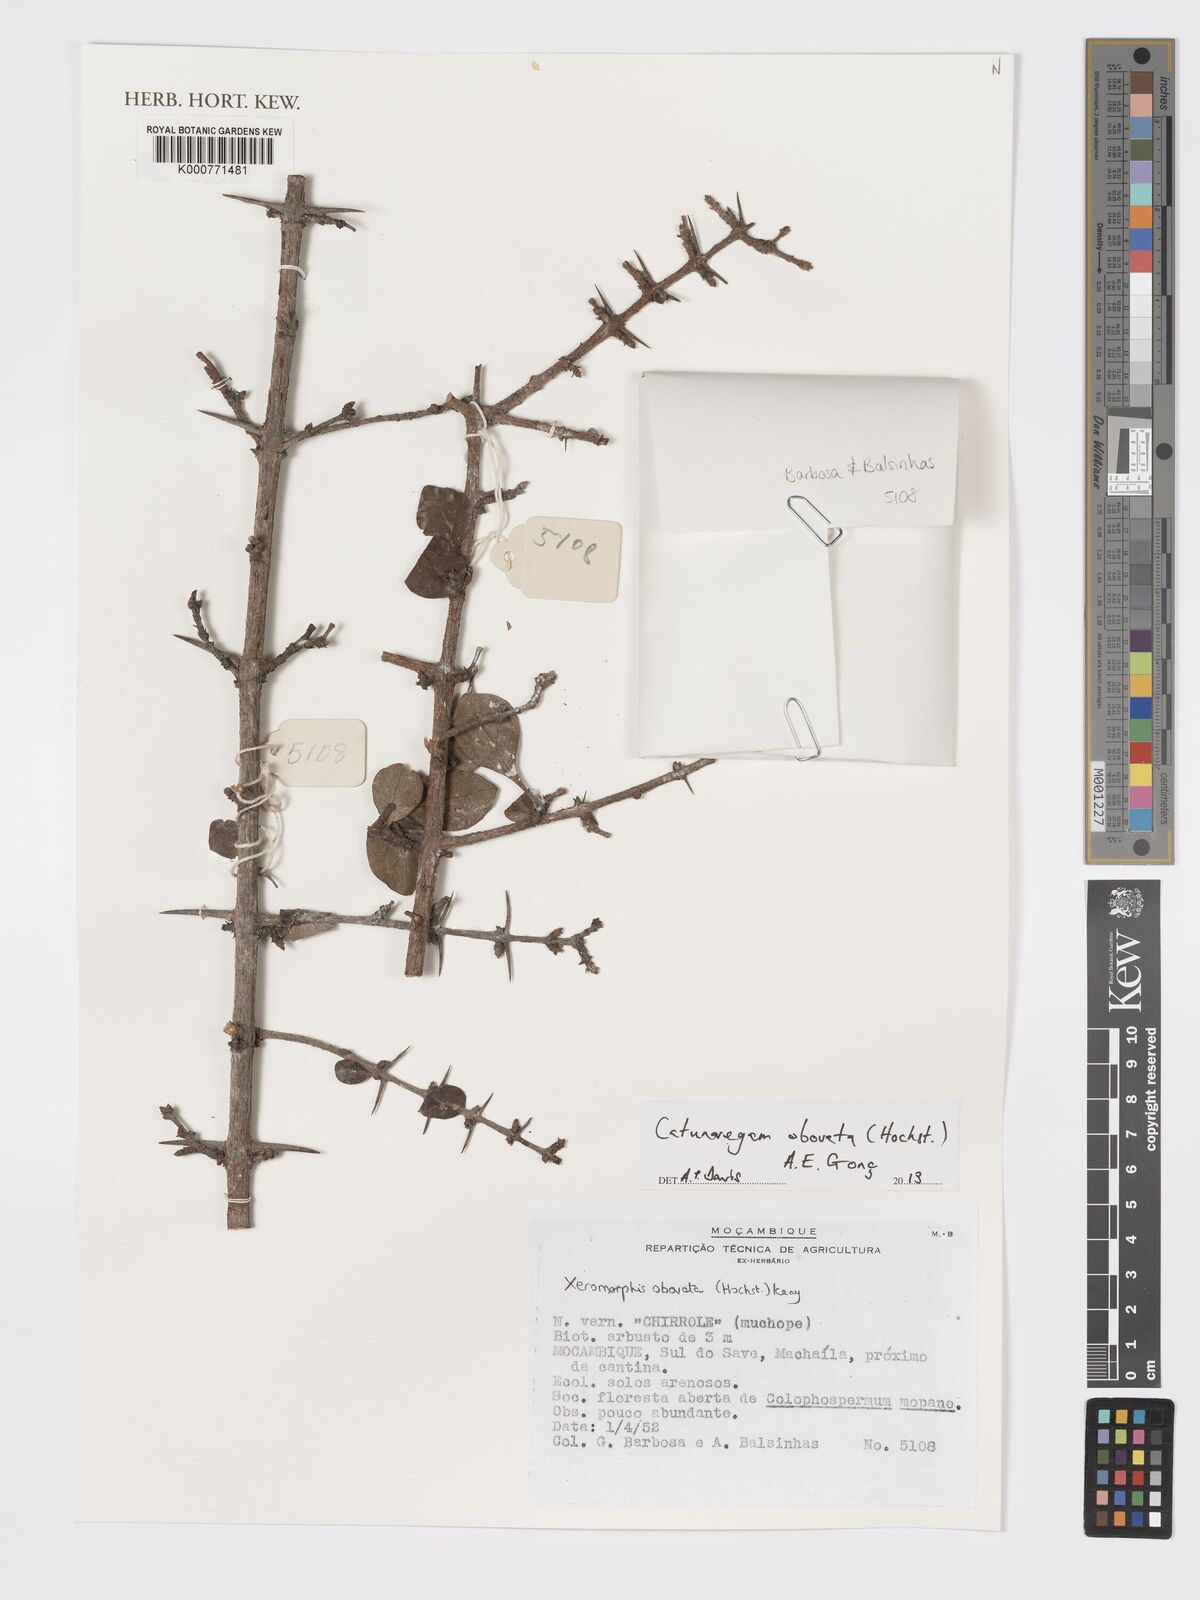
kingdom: Plantae
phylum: Tracheophyta
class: Magnoliopsida
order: Gentianales
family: Rubiaceae
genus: Catunaregam
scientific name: Catunaregam
